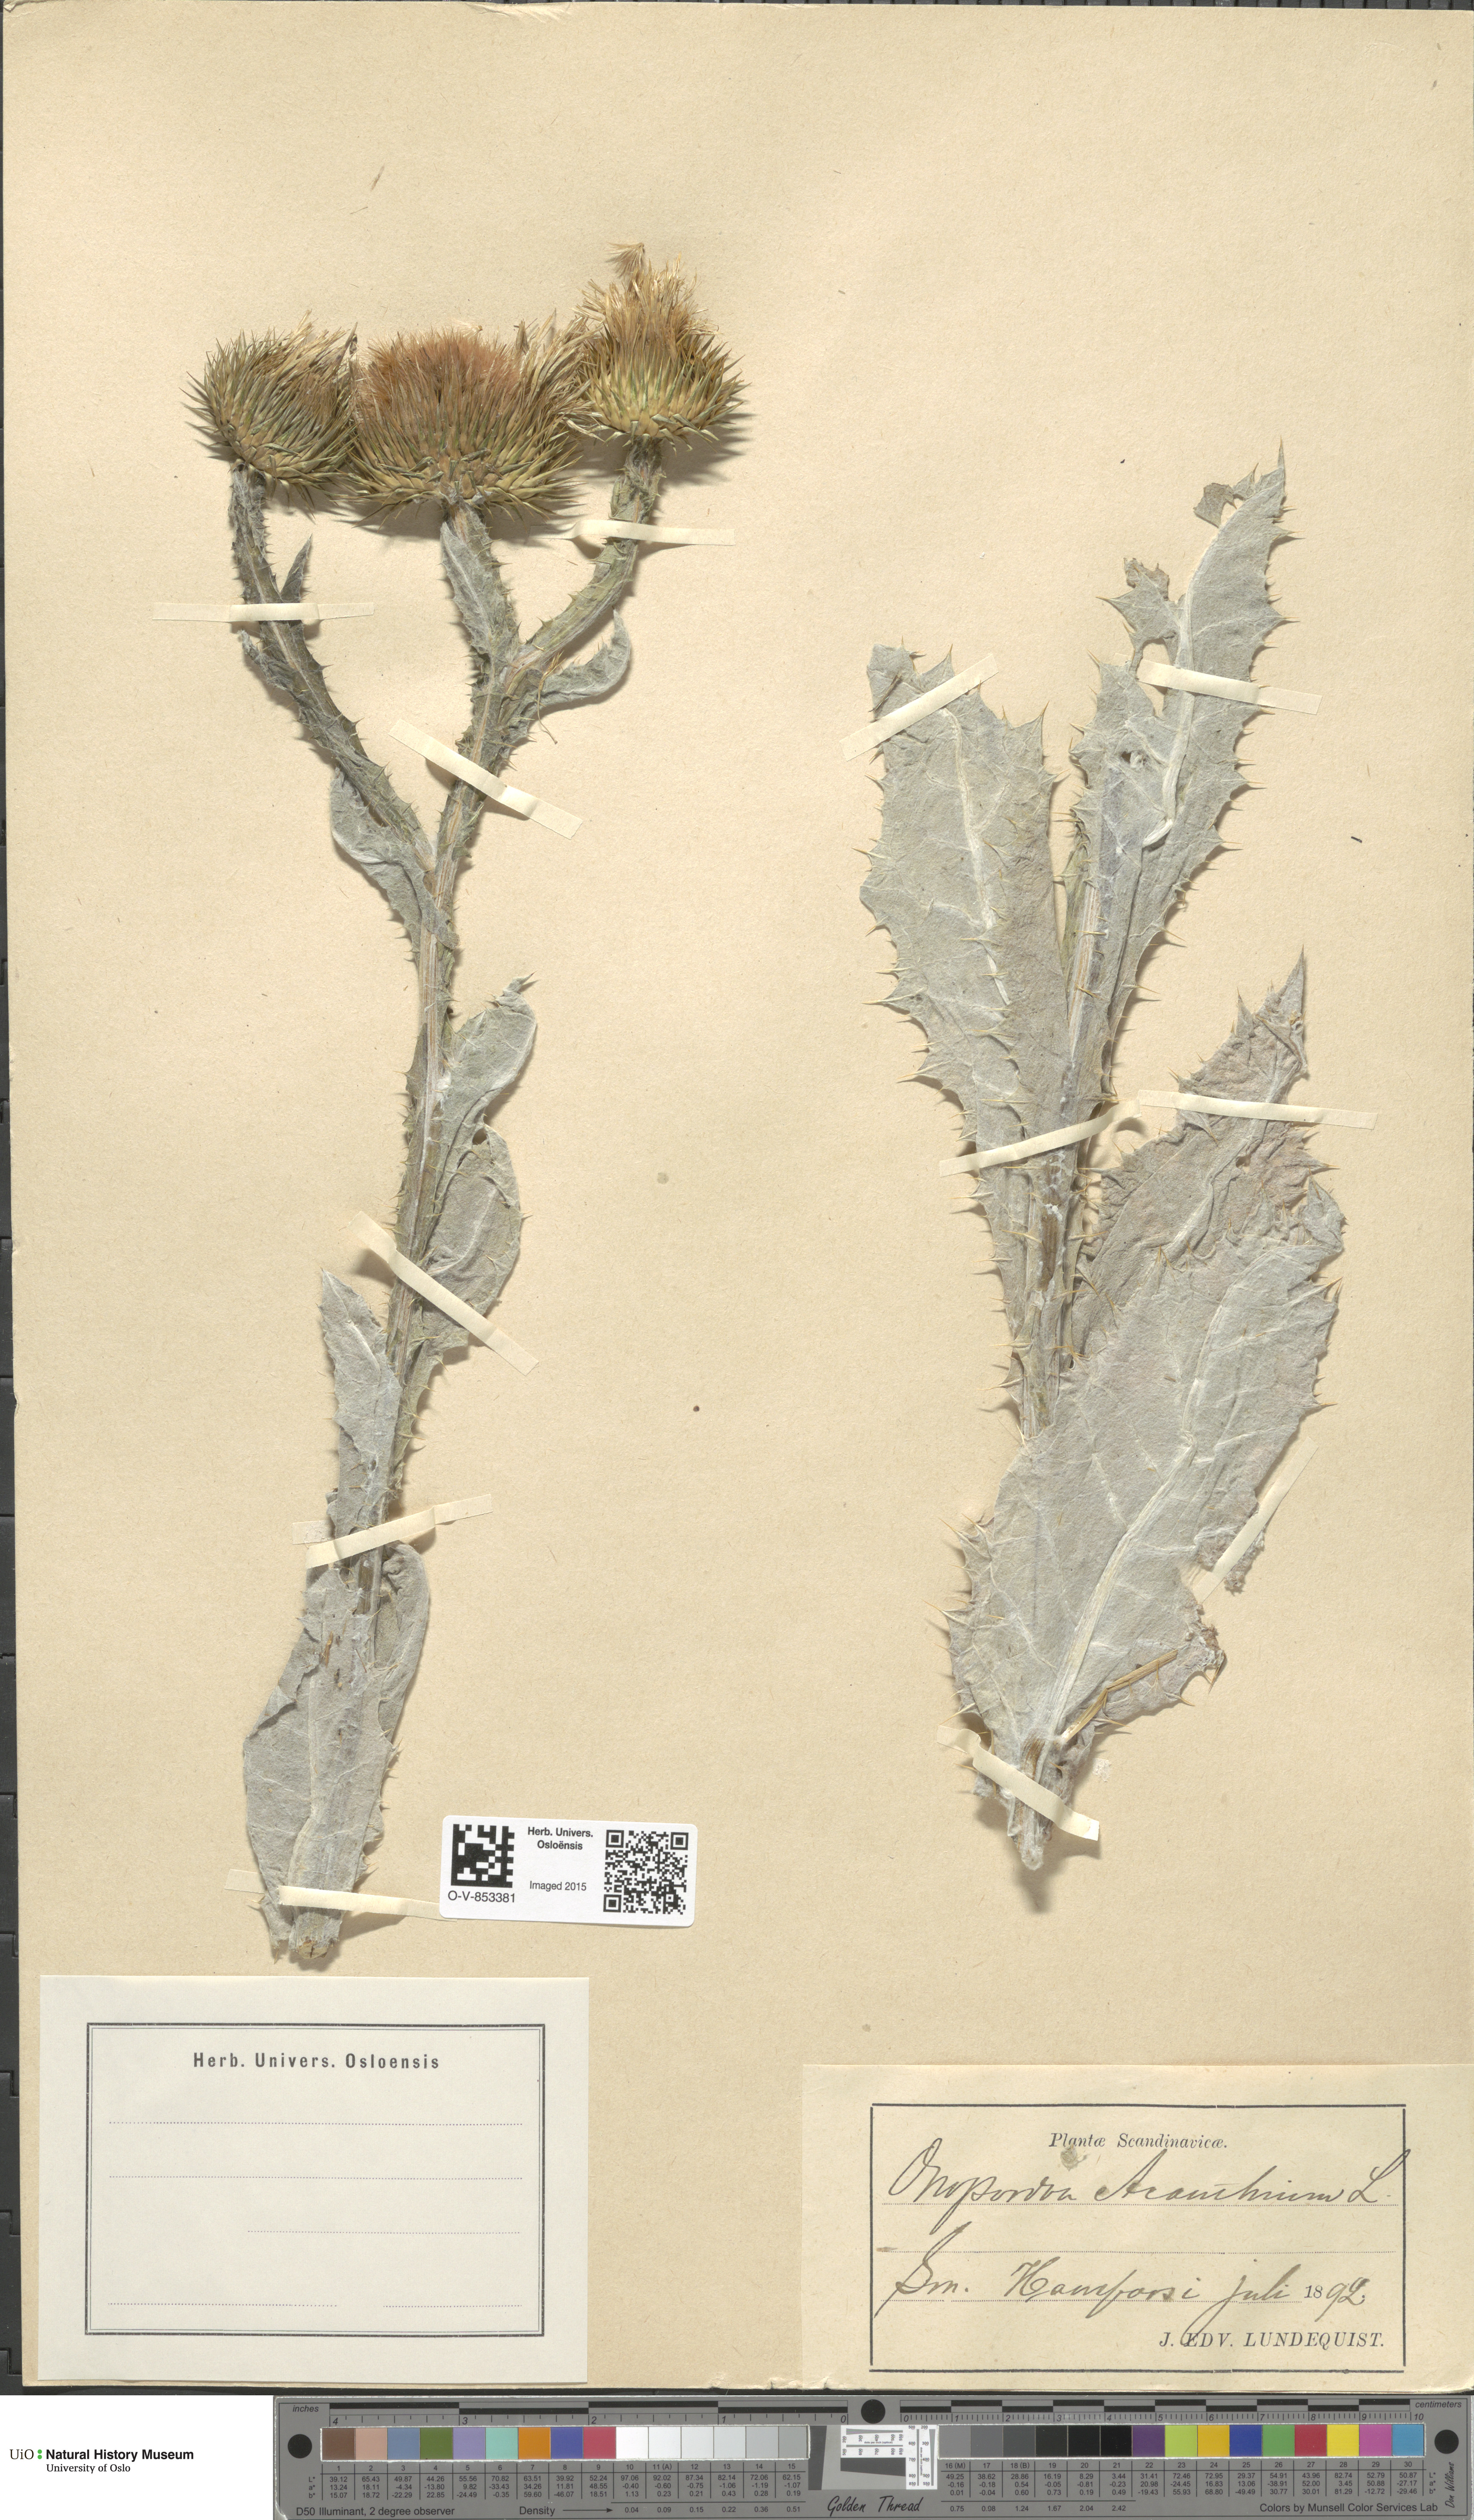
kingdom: Plantae
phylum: Tracheophyta
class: Magnoliopsida
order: Asterales
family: Asteraceae
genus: Onopordum
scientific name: Onopordum acanthium
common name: Scotch thistle
